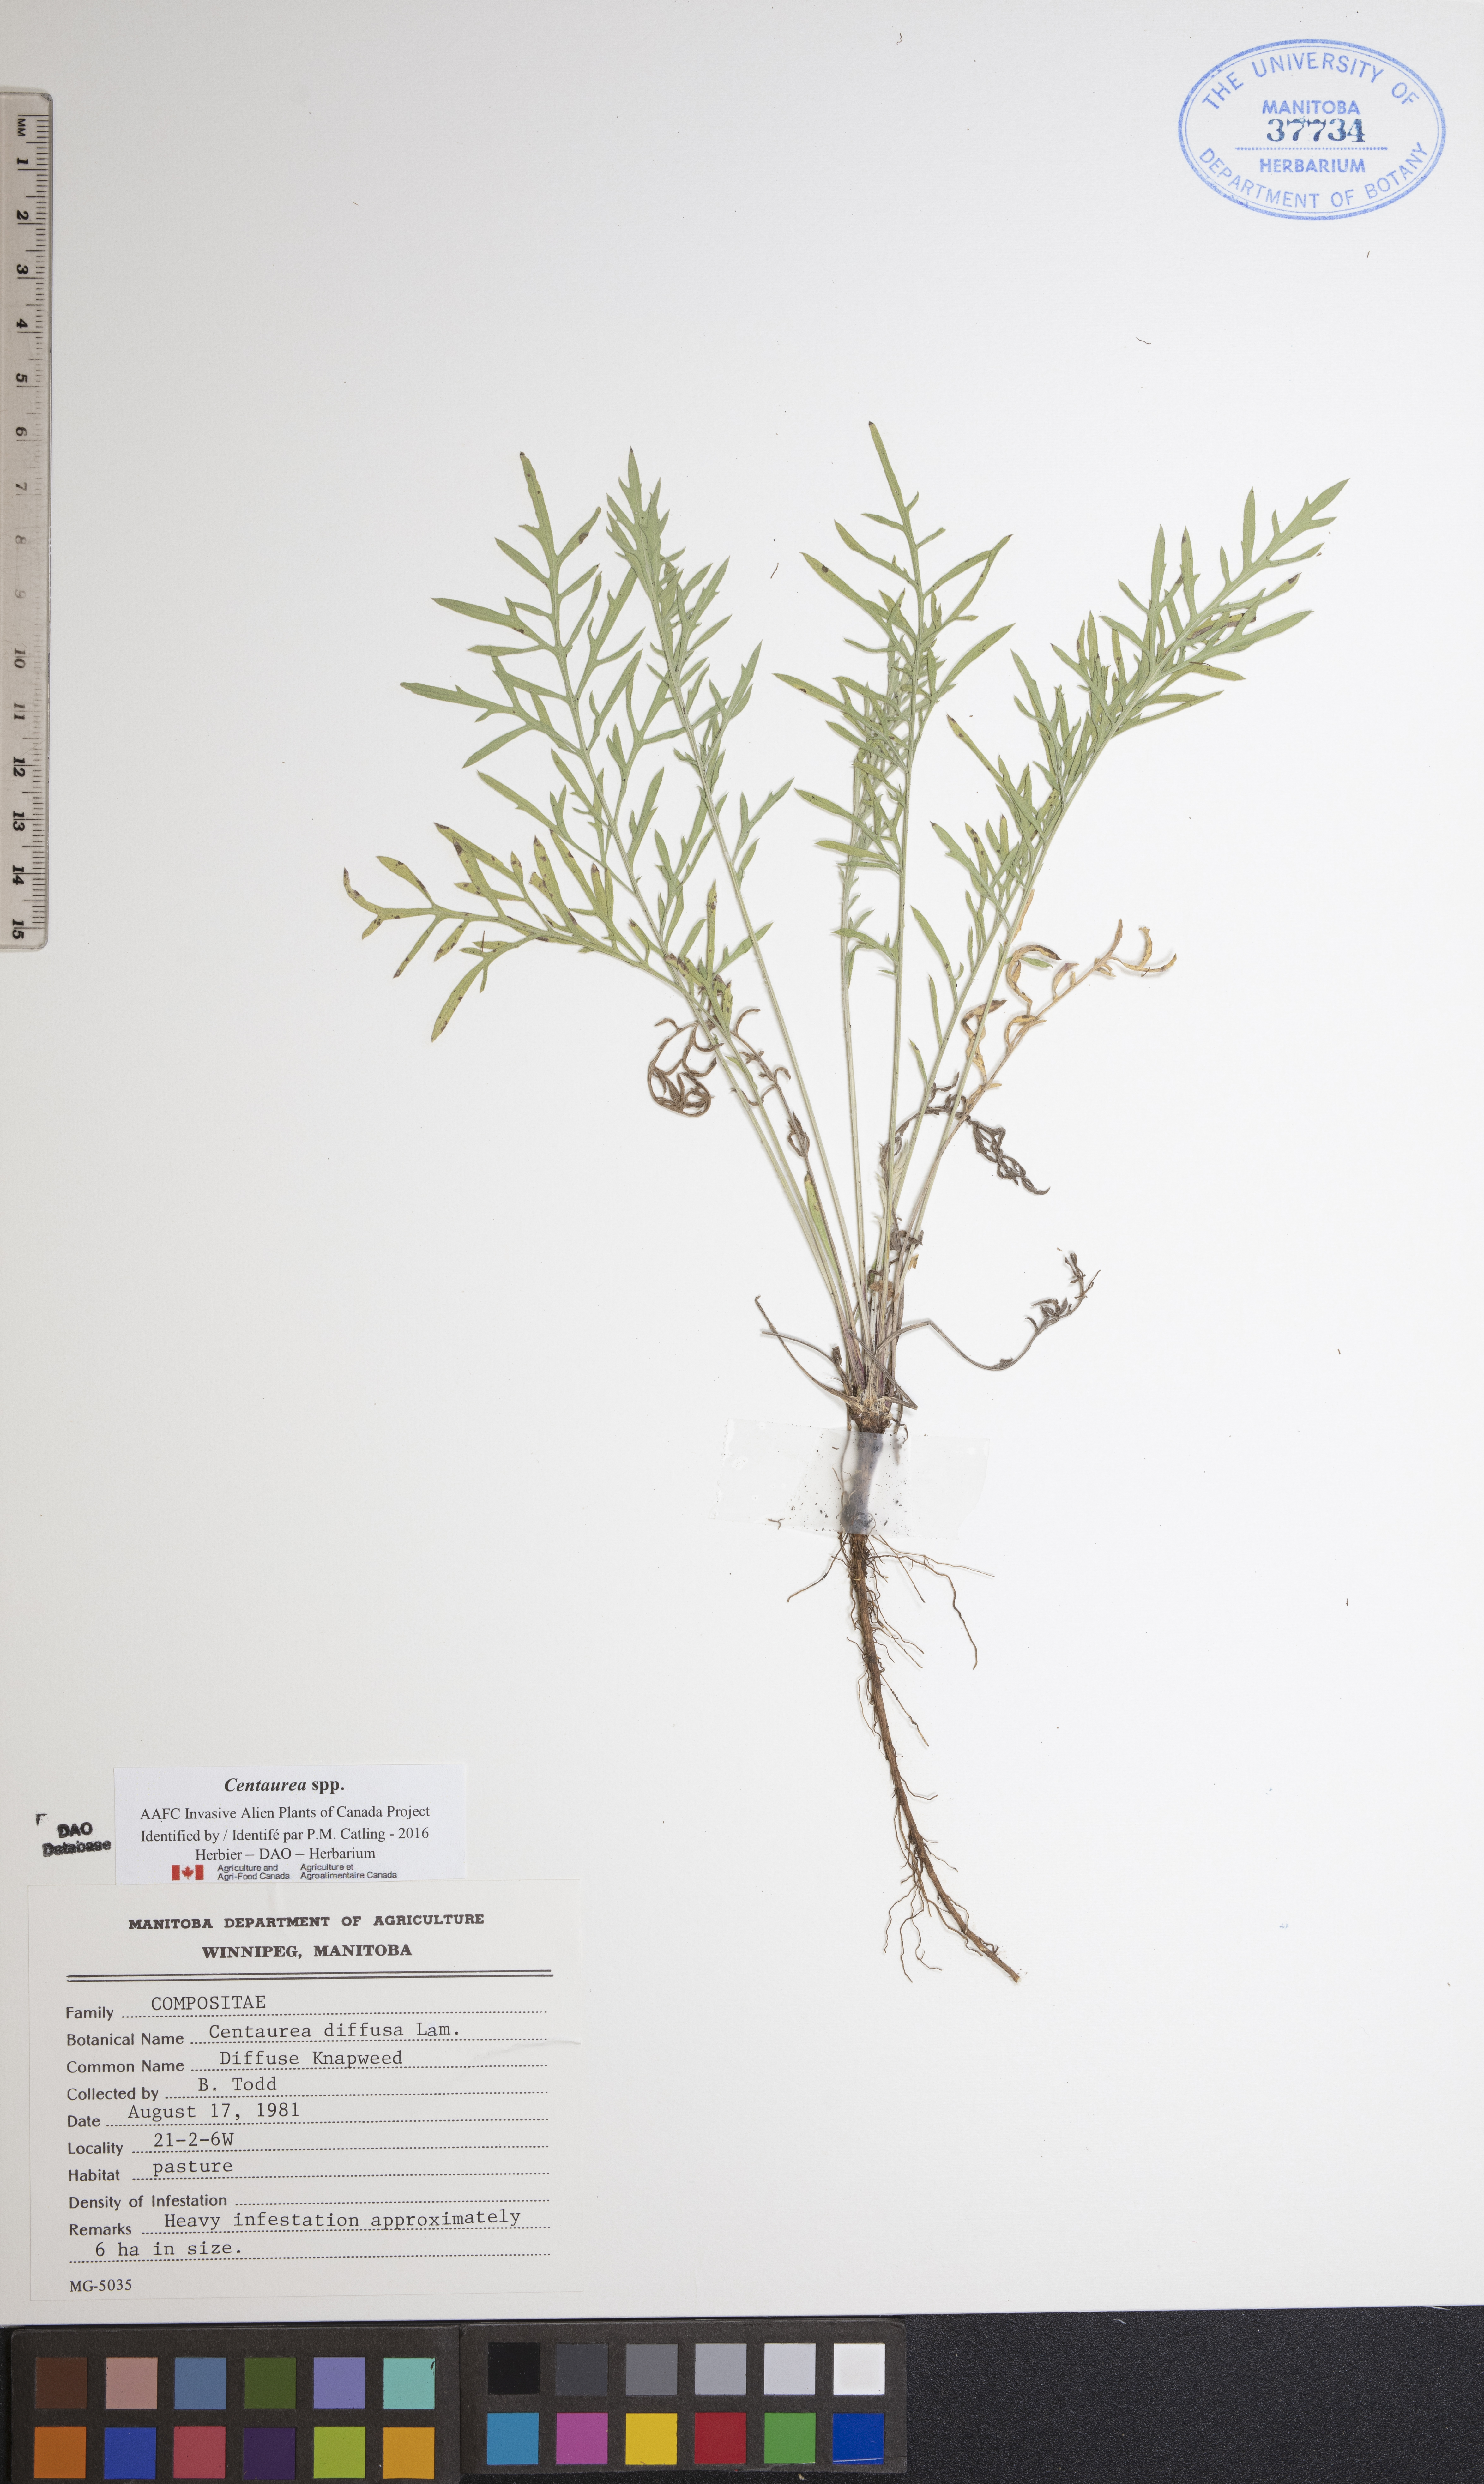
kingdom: Plantae
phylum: Tracheophyta
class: Magnoliopsida
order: Asterales
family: Asteraceae
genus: Centaurea
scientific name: Centaurea diffusa
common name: Diffuse knapweed
